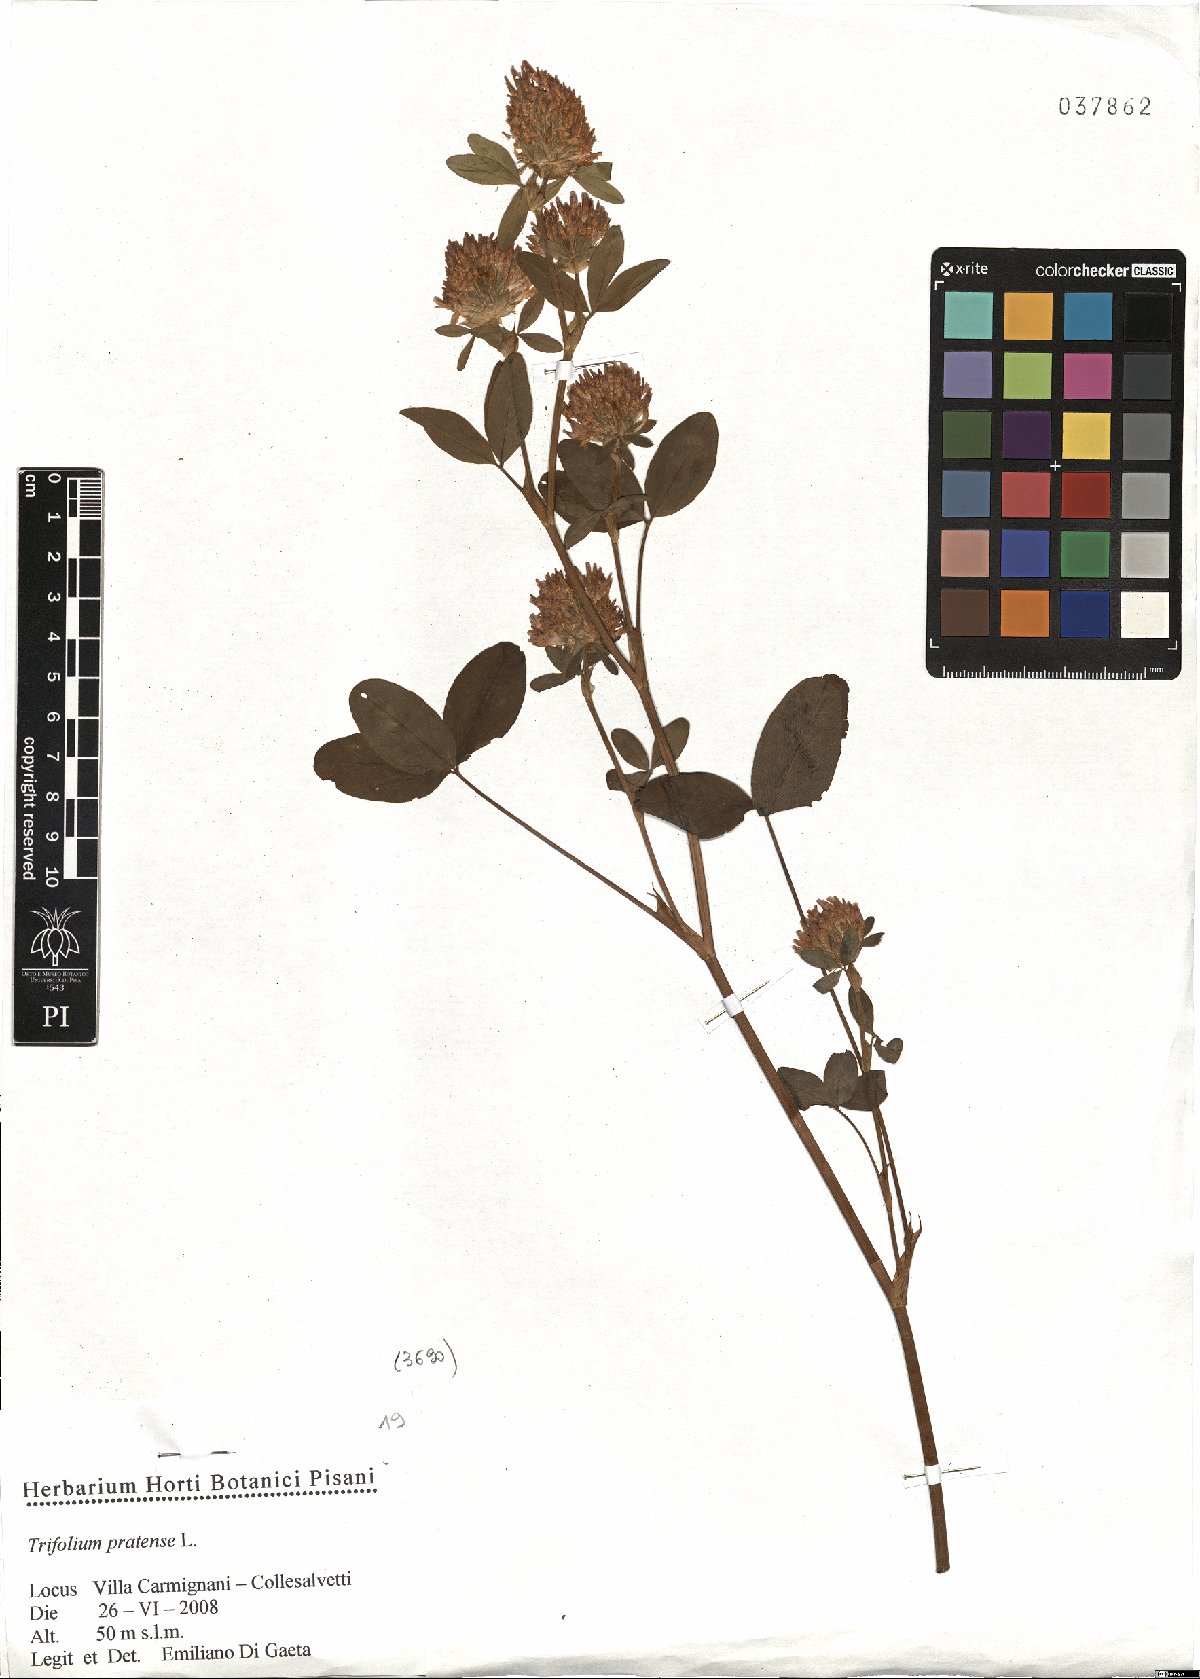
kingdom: Plantae
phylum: Tracheophyta
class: Magnoliopsida
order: Fabales
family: Fabaceae
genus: Trifolium
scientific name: Trifolium pratense
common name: Red clover
